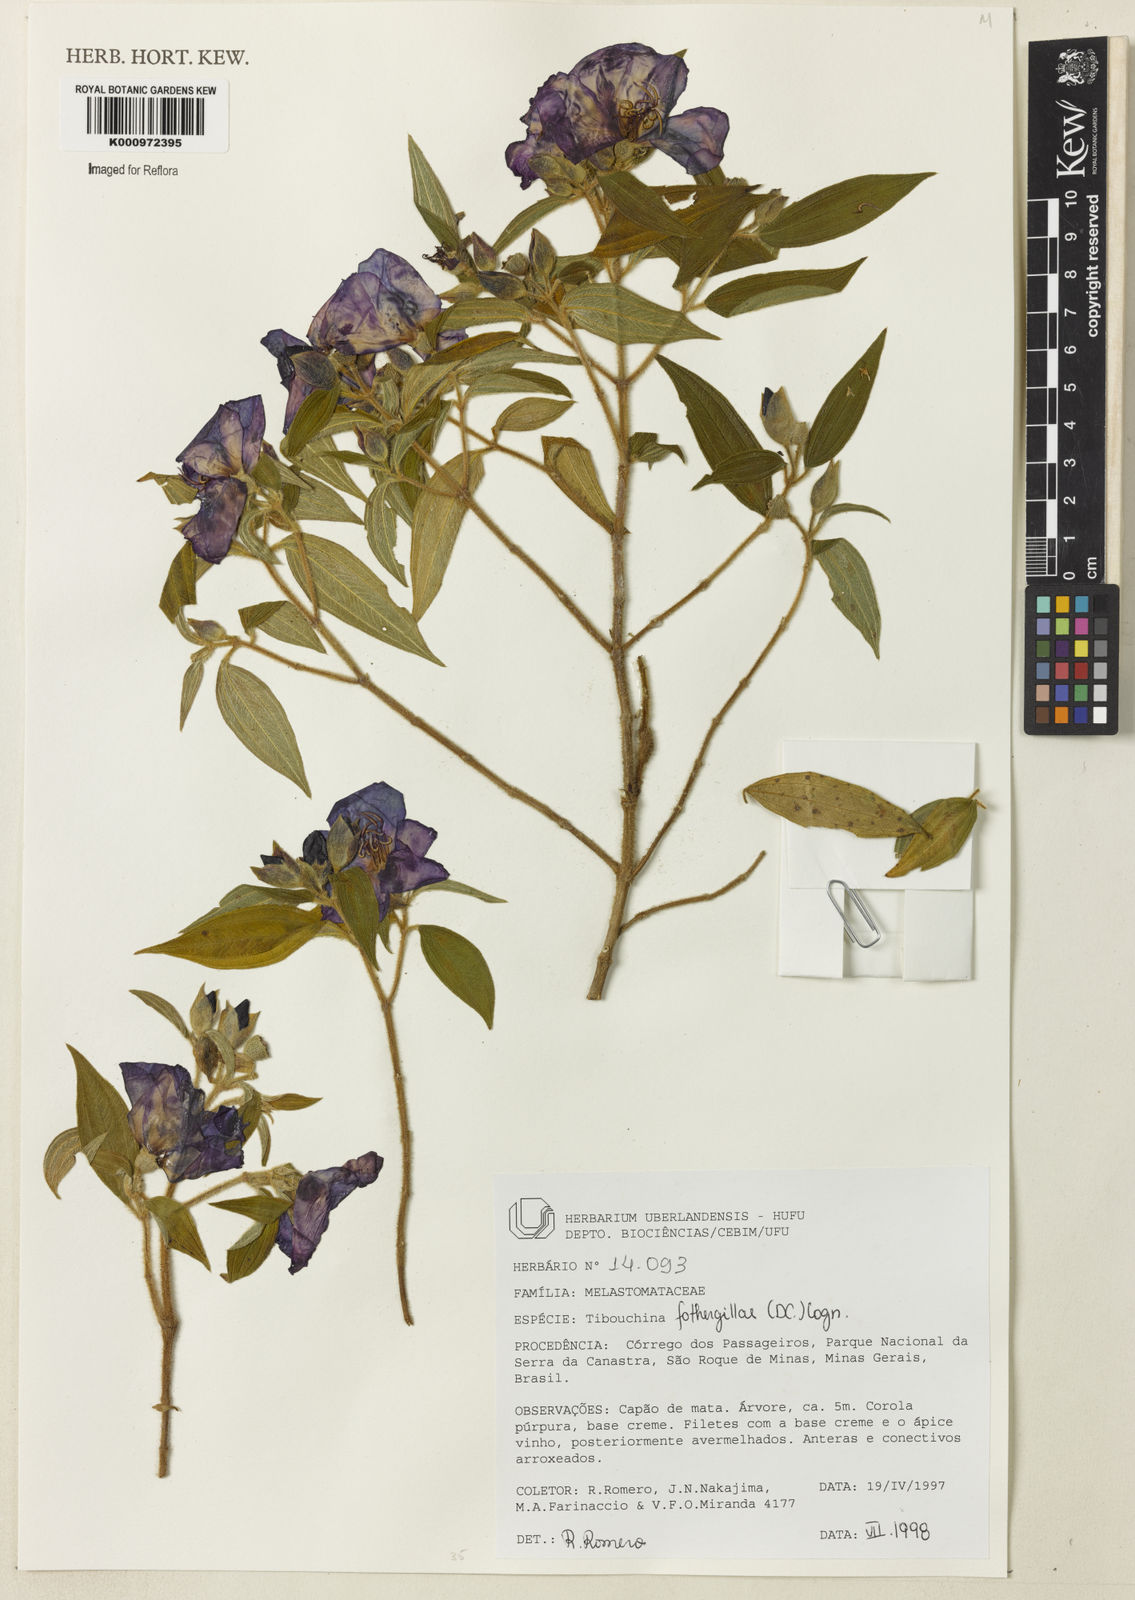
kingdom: Plantae
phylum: Tracheophyta
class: Magnoliopsida
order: Myrtales
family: Melastomataceae
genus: Pleroma
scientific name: Pleroma fothergillae
